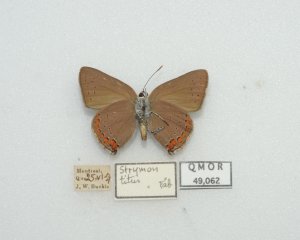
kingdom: Animalia
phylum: Arthropoda
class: Insecta
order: Lepidoptera
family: Lycaenidae
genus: Harkenclenus
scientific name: Harkenclenus titus
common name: Coral Hairstreak
